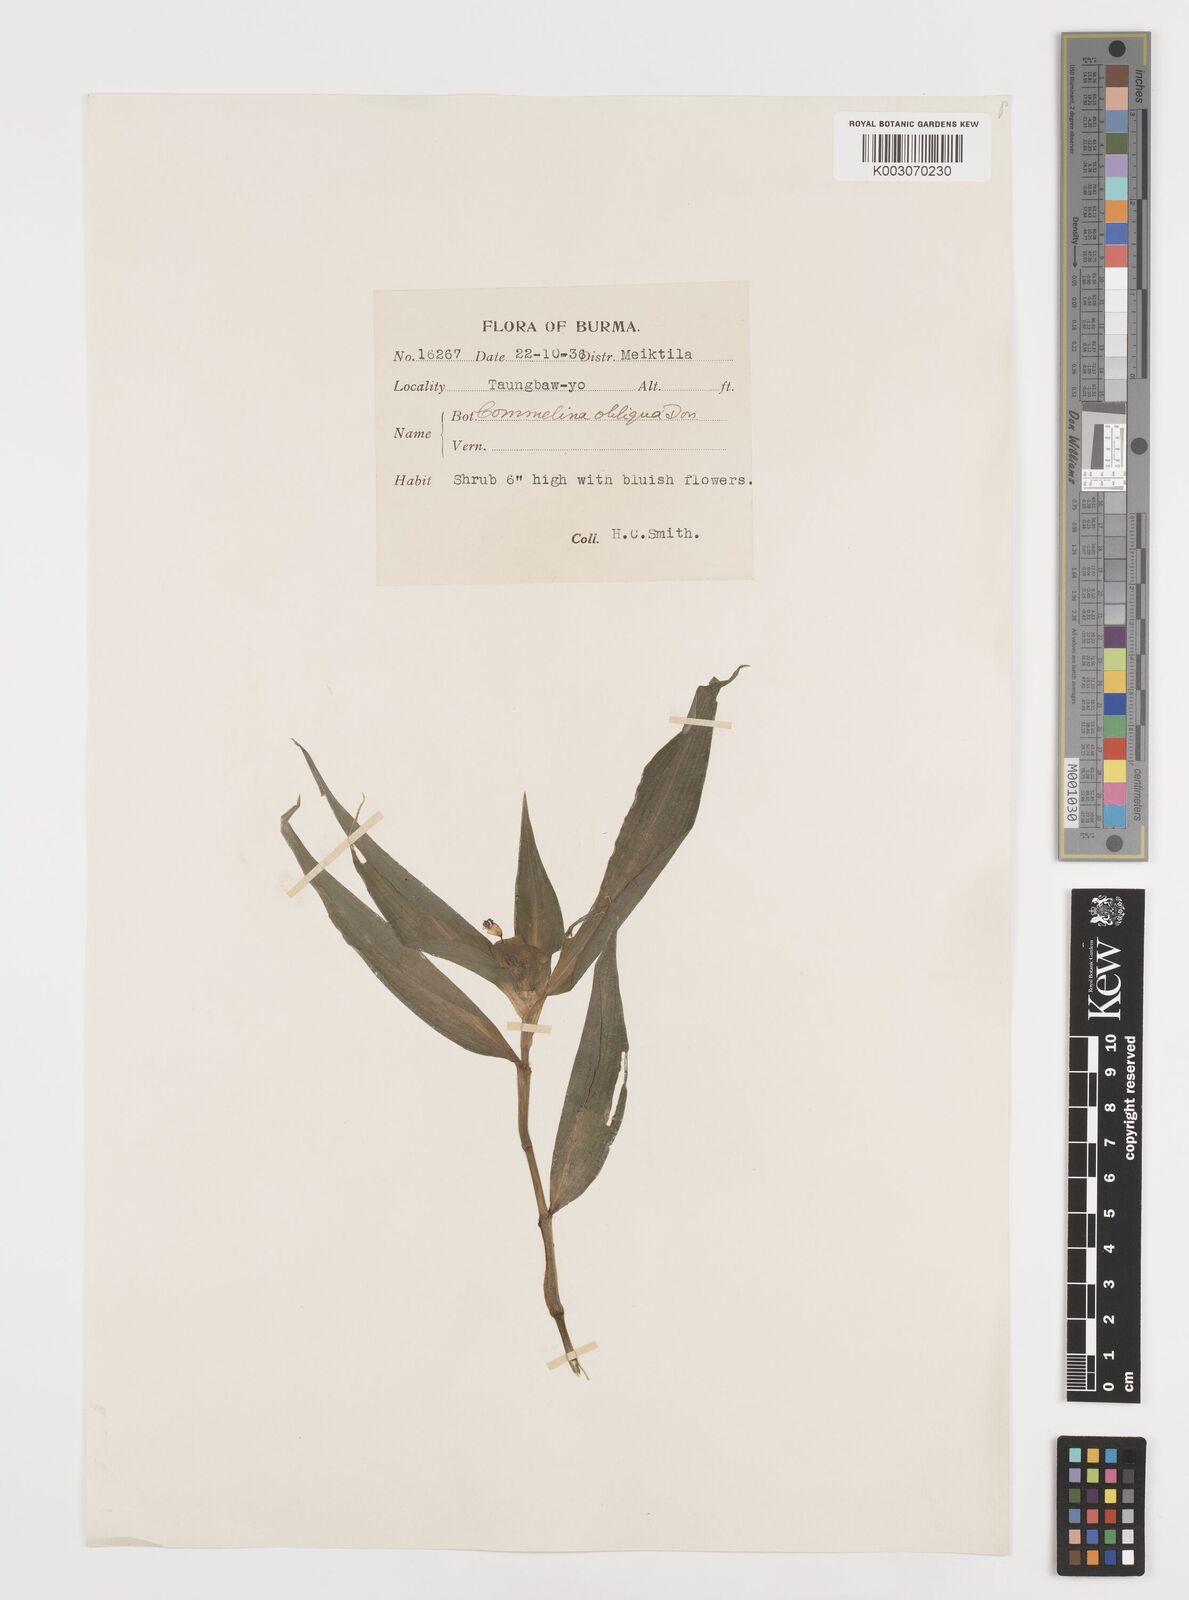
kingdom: Plantae
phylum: Tracheophyta
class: Liliopsida
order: Commelinales
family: Commelinaceae
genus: Commelina
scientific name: Commelina paludosa
